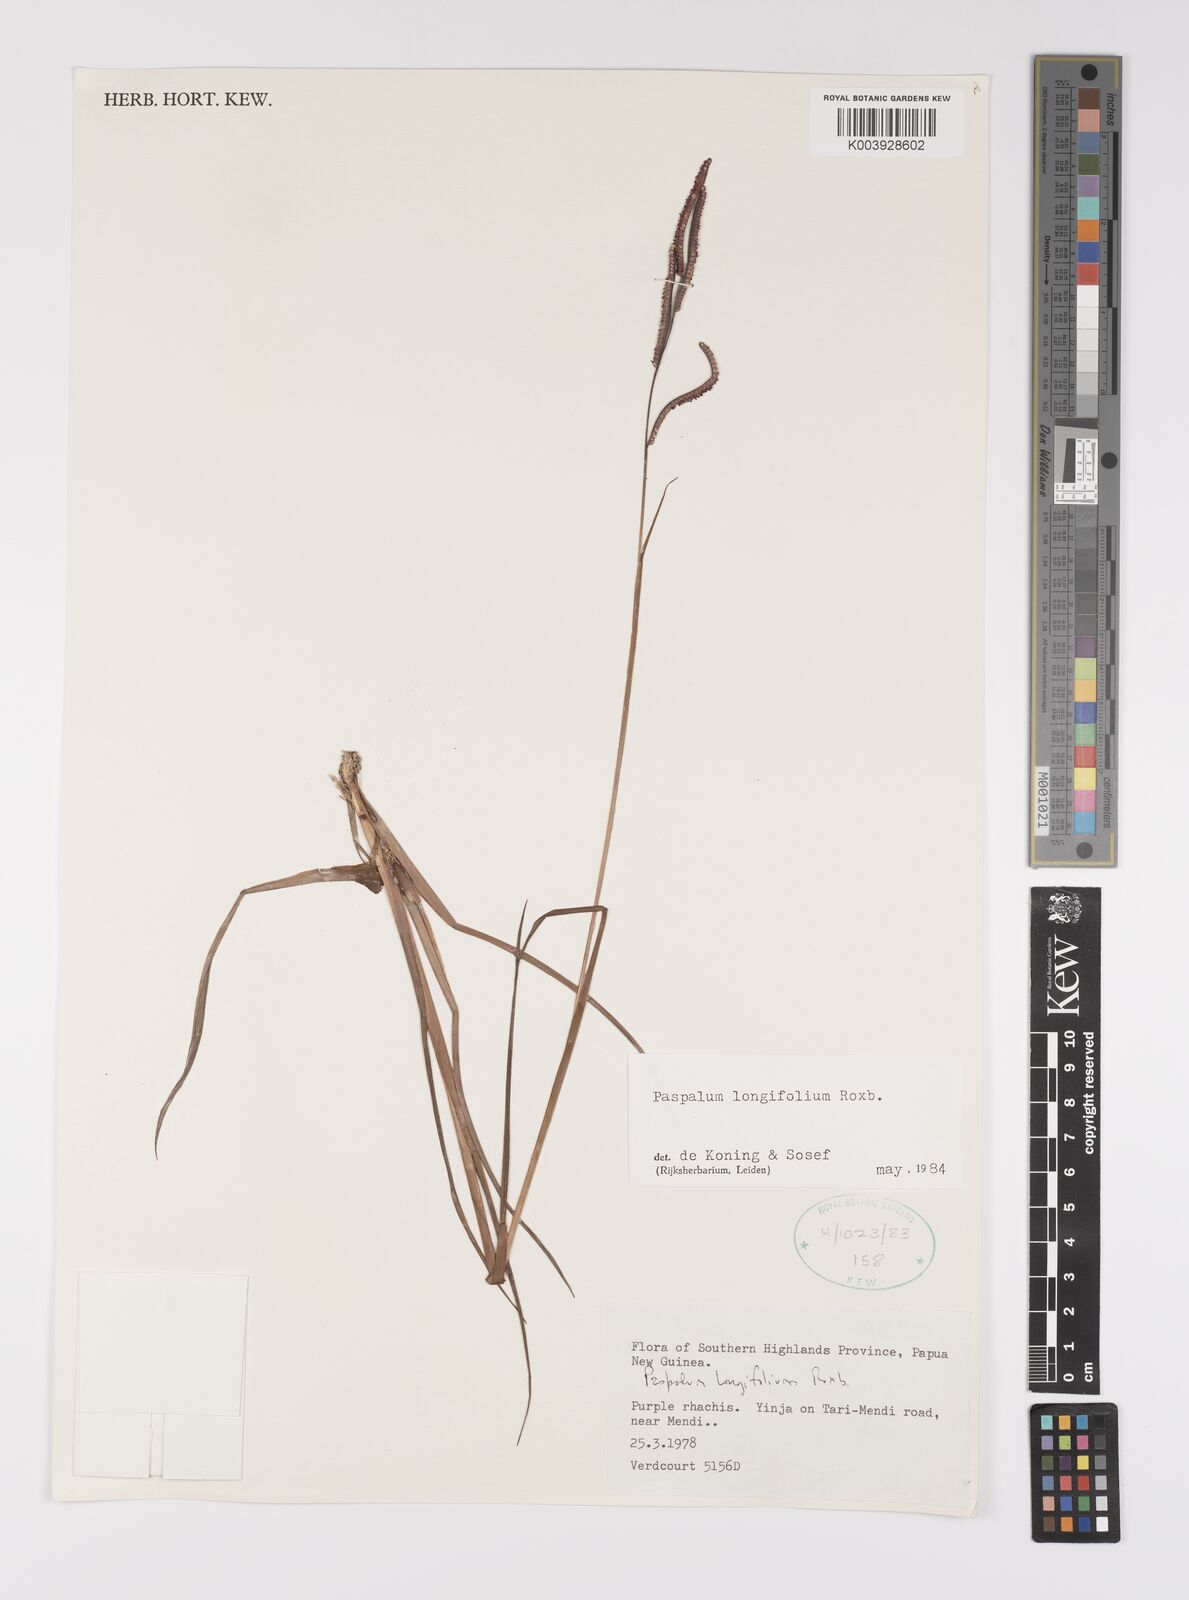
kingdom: Plantae
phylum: Tracheophyta
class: Liliopsida
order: Poales
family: Poaceae
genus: Paspalum
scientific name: Paspalum sumatrense
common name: Long-leaved paspalum
